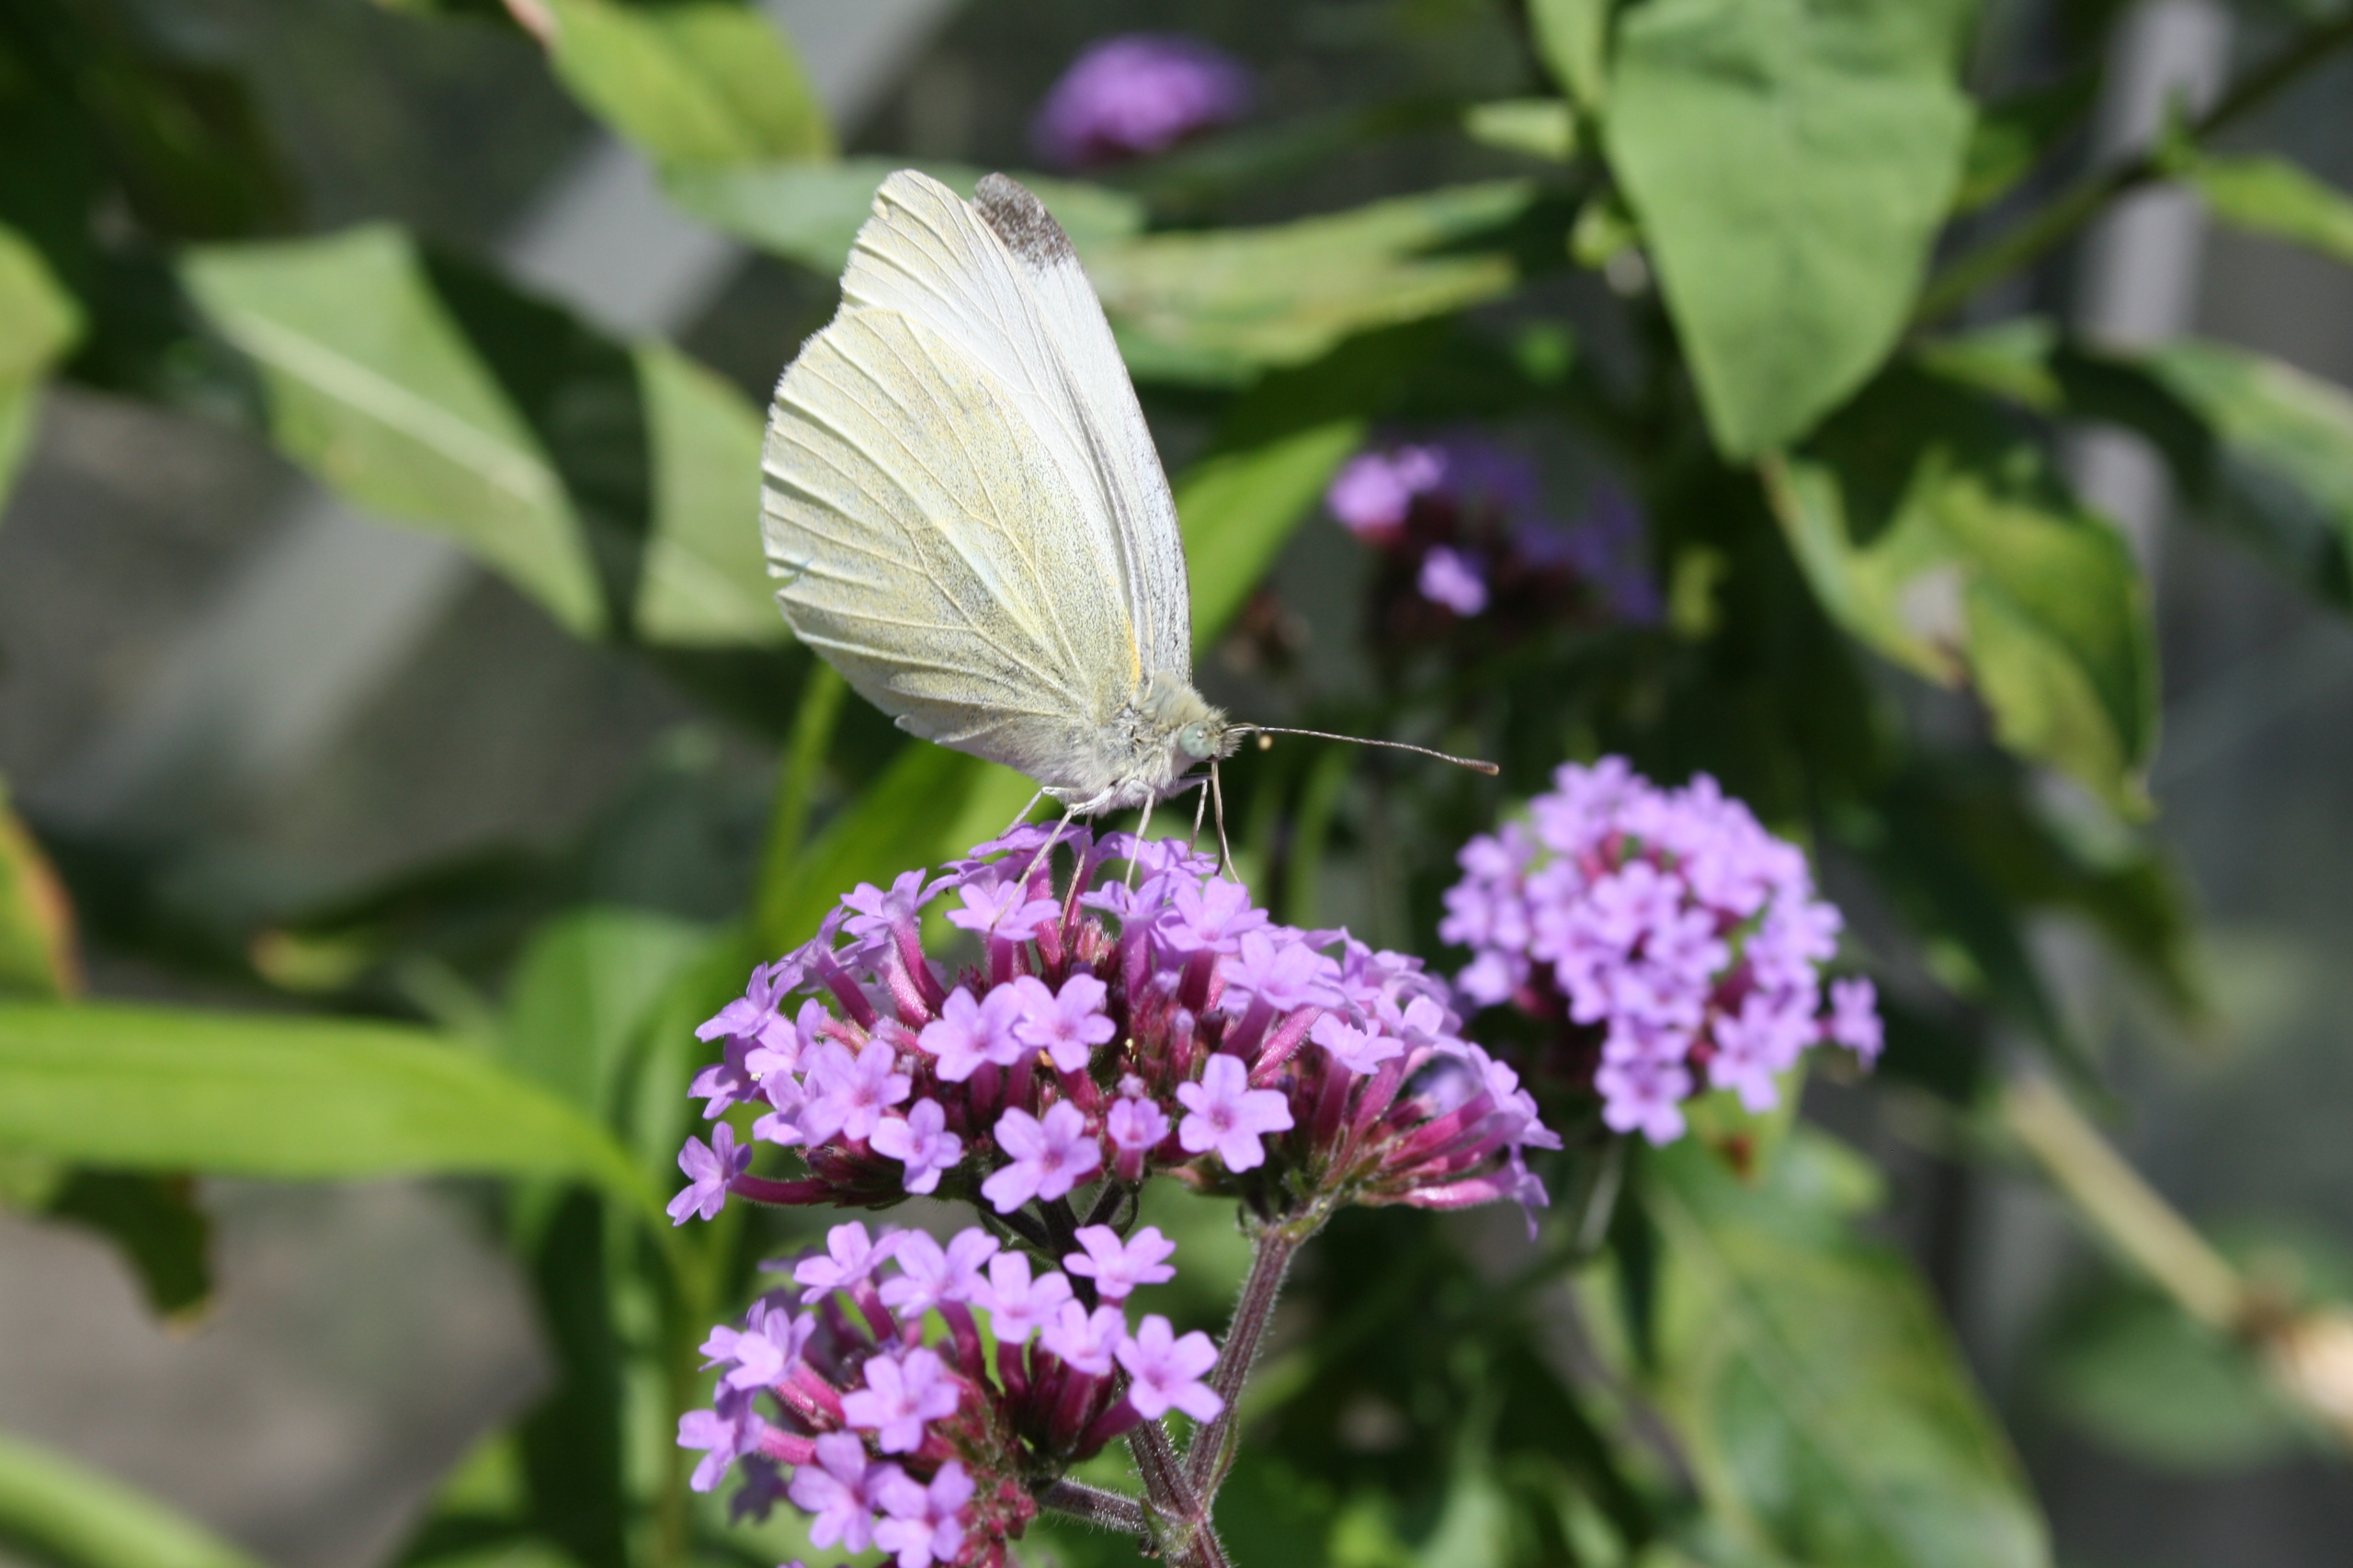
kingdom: Animalia
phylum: Arthropoda
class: Insecta
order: Lepidoptera
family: Pieridae
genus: Pieris
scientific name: Pieris rapae
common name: Lille kålsommerfugl
